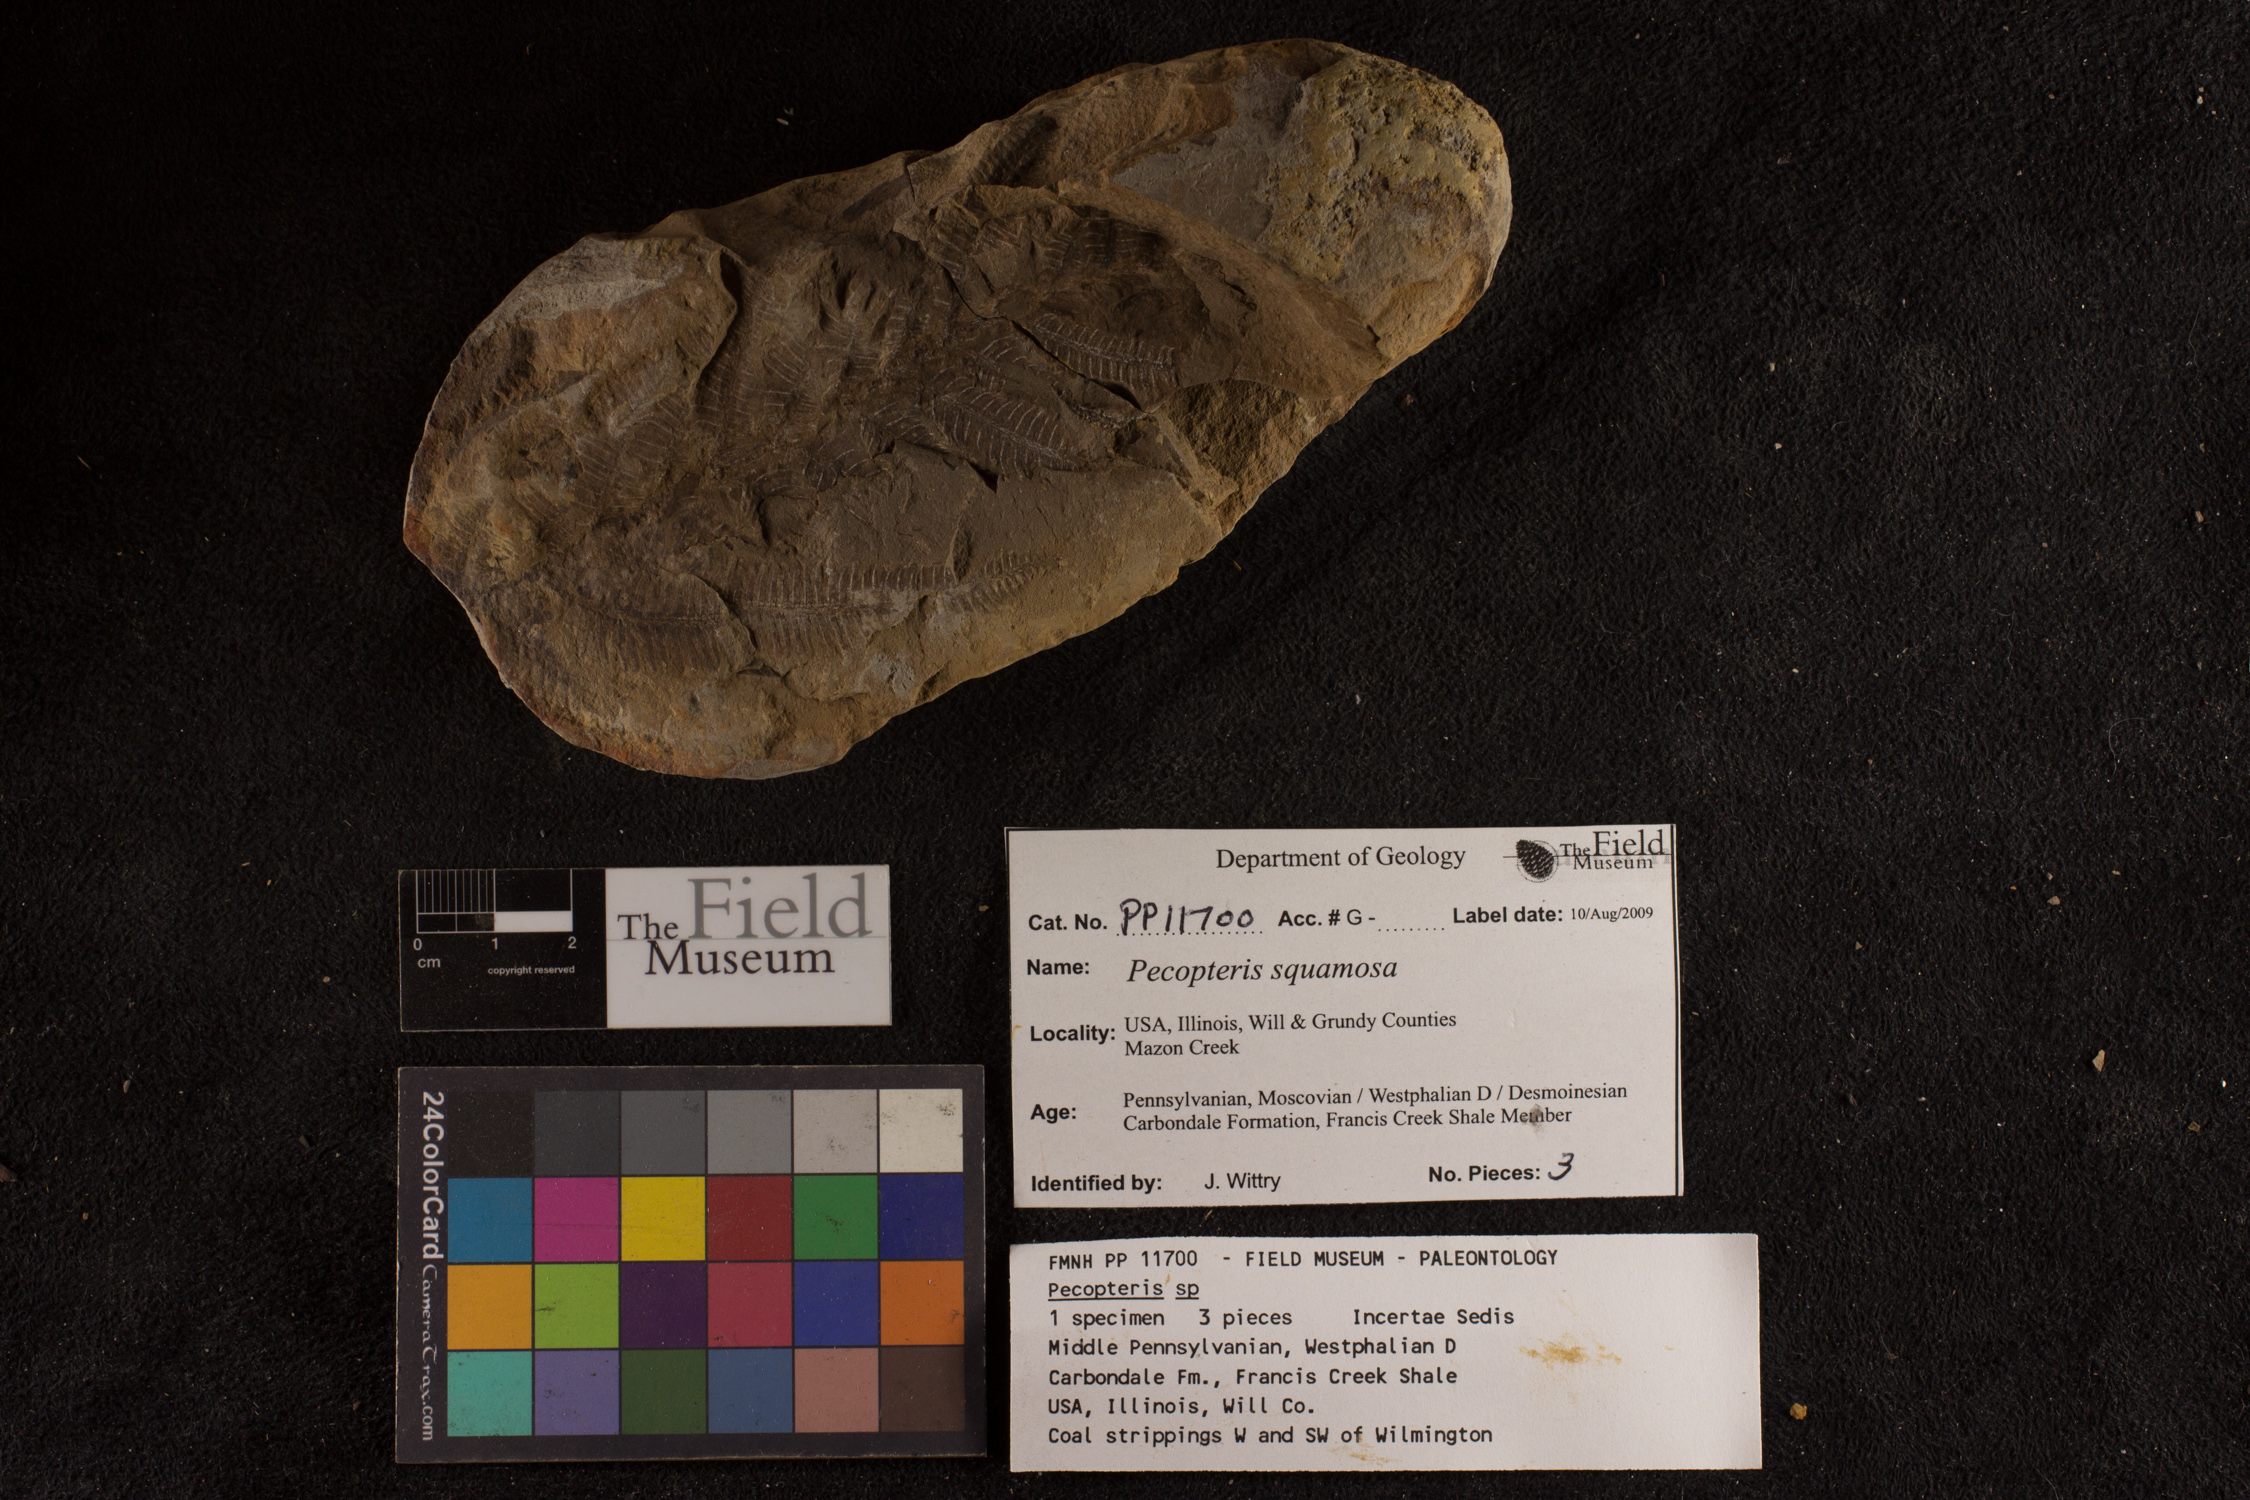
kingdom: Plantae
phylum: Tracheophyta
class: Polypodiopsida
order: Marattiales
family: Asterothecaceae
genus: Pecopteris
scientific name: Pecopteris
